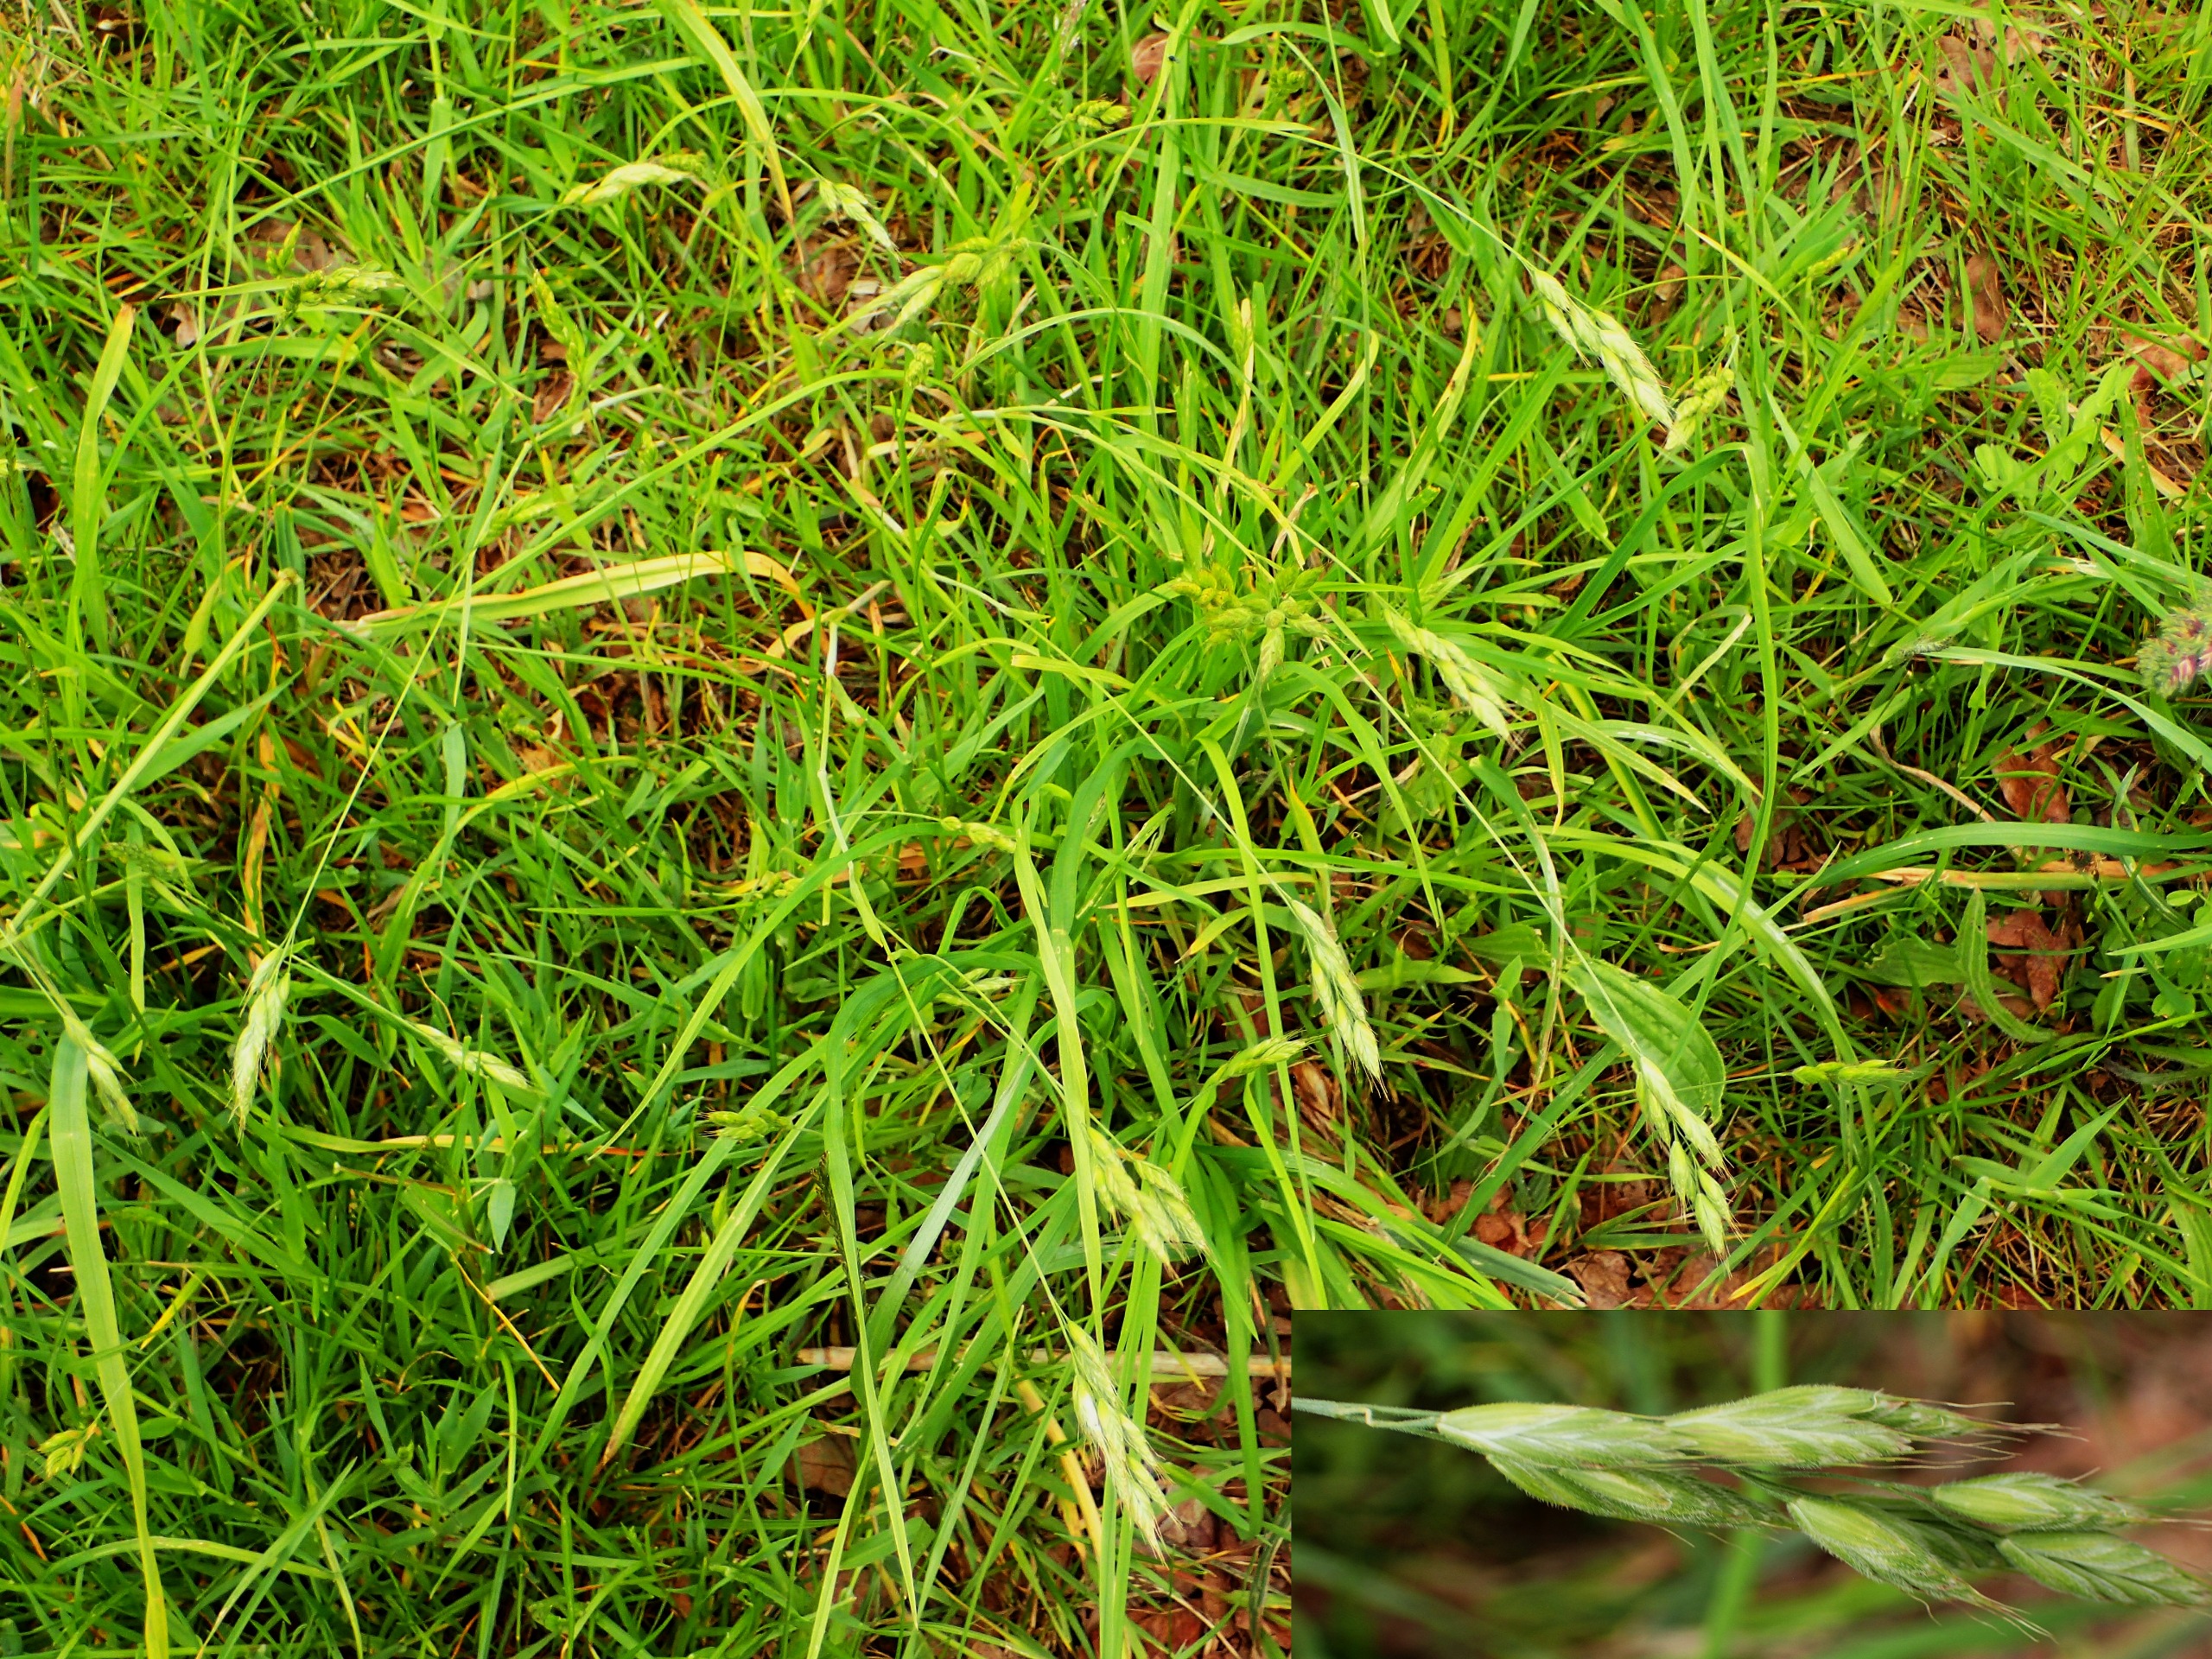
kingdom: Plantae
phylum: Tracheophyta
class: Liliopsida
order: Poales
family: Poaceae
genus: Bromus
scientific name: Bromus hordeaceus
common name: Blød hejre
